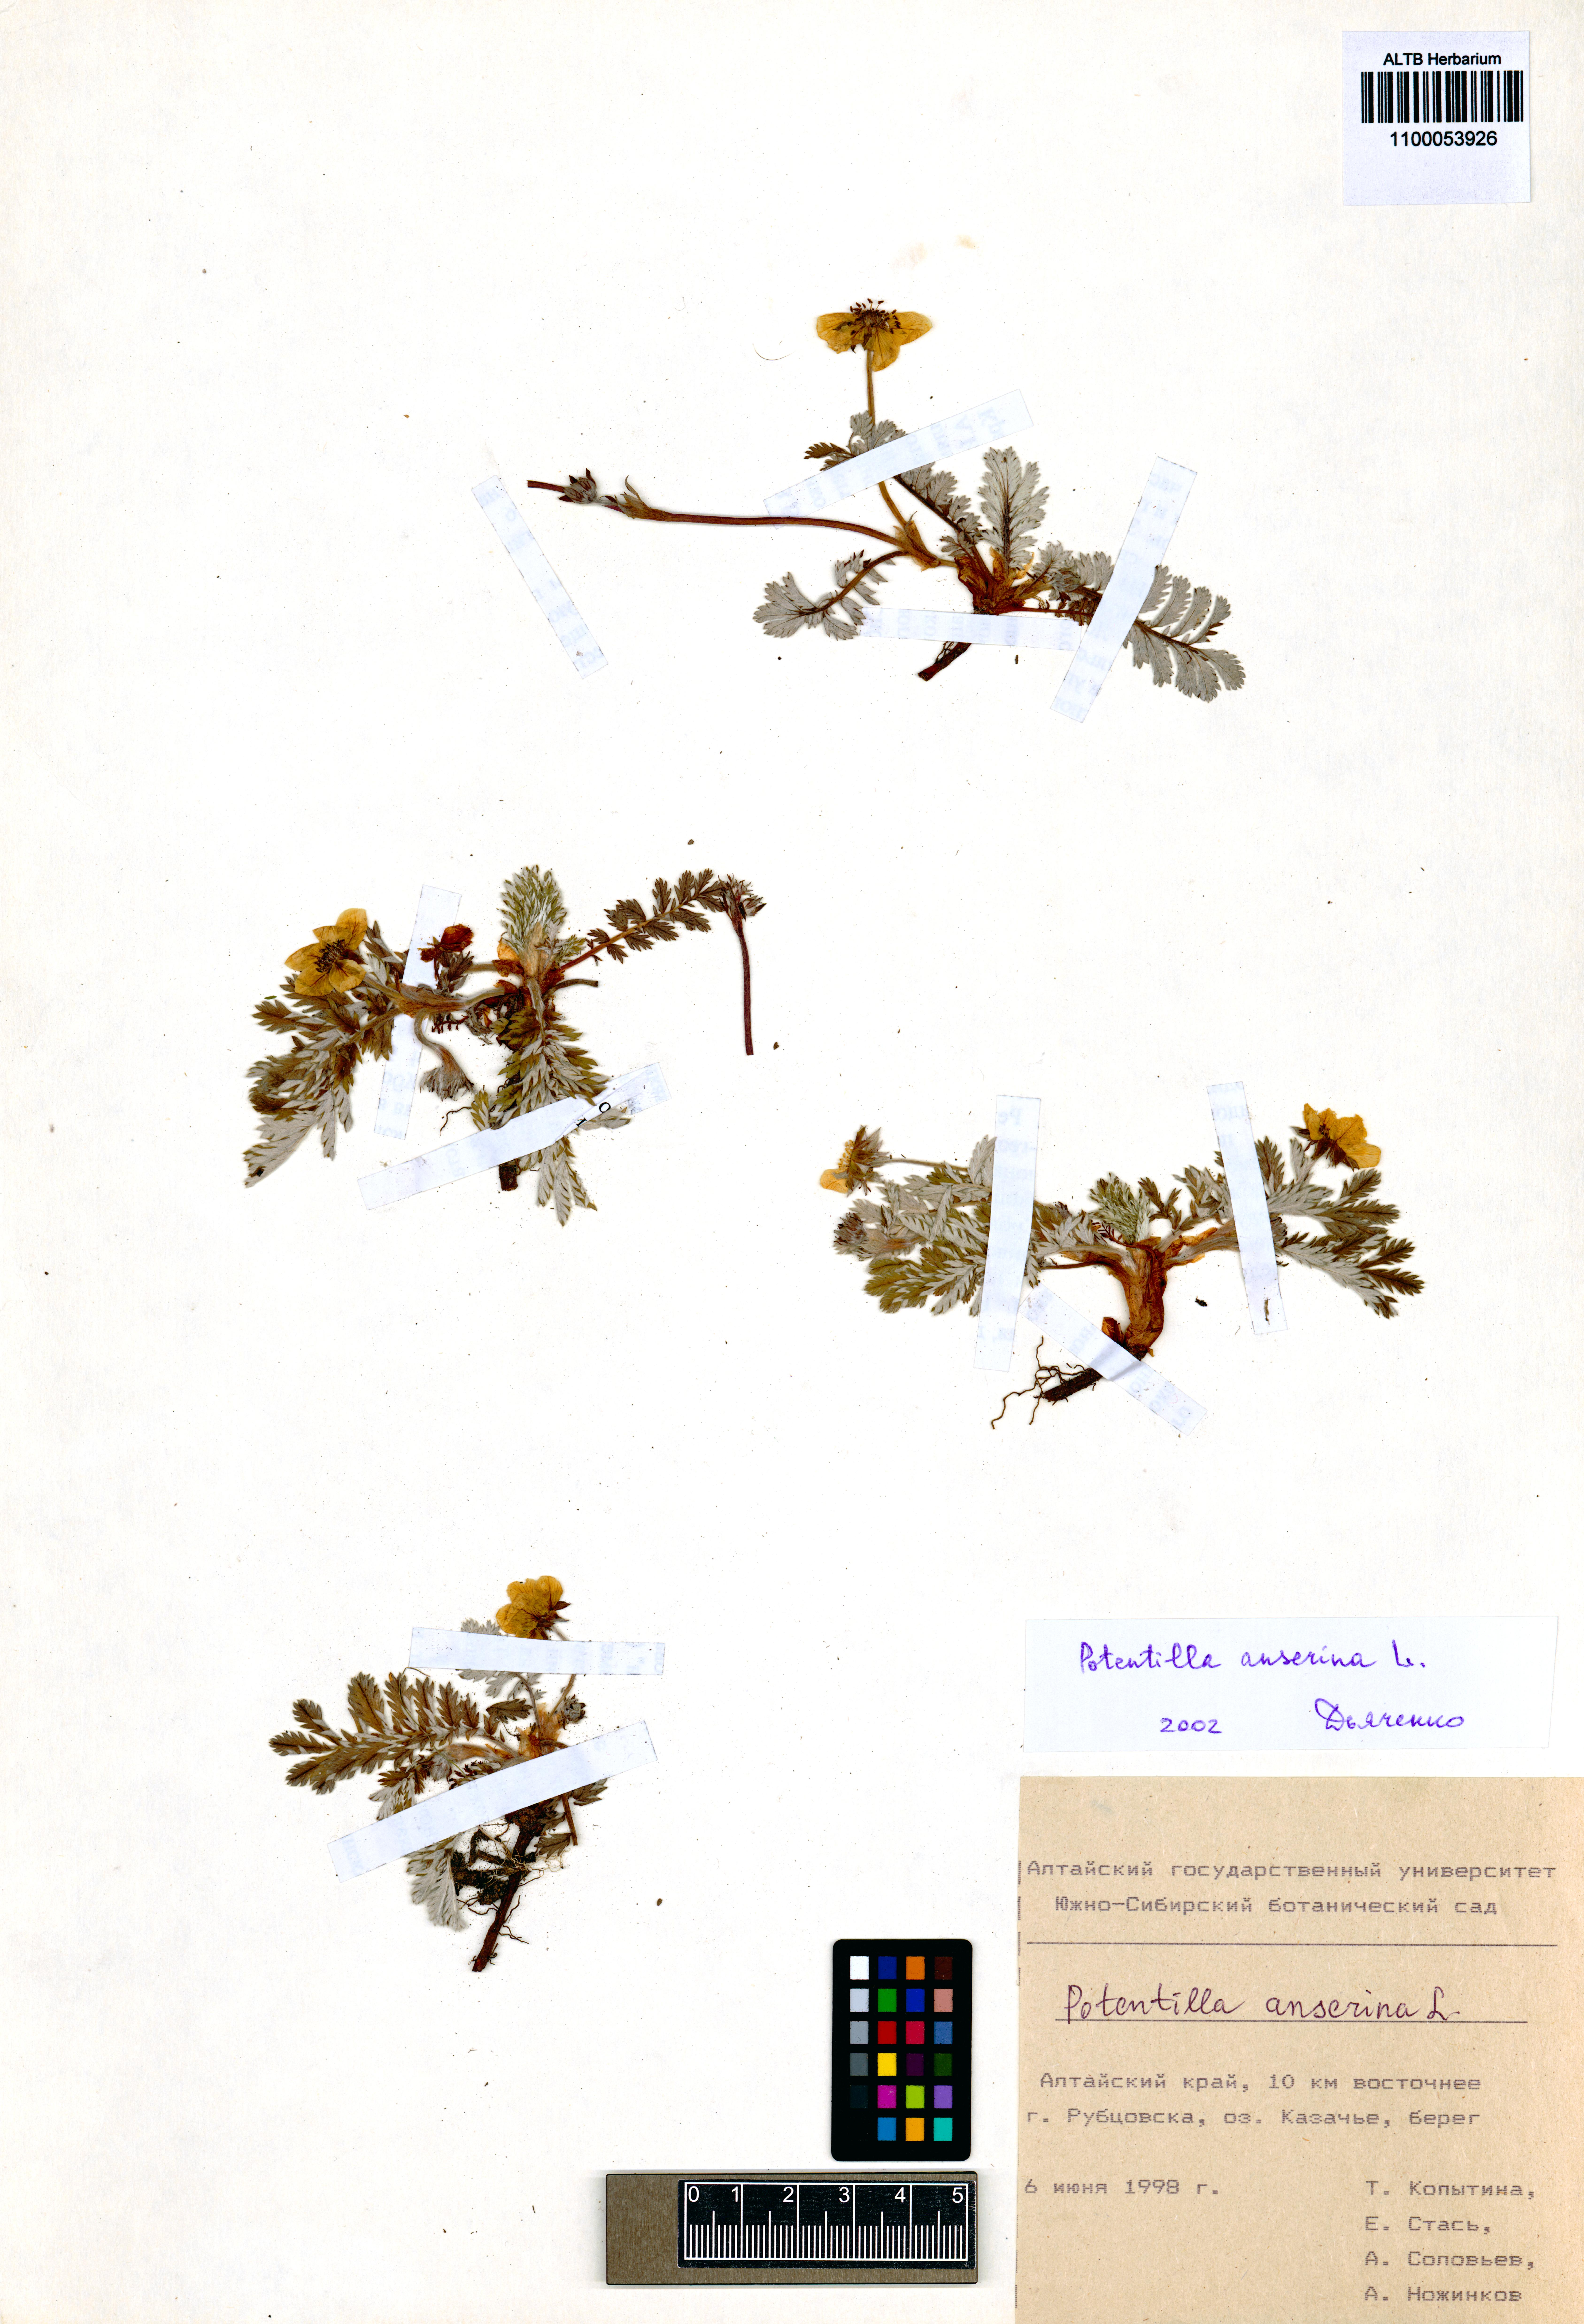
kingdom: Plantae
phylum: Tracheophyta
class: Magnoliopsida
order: Rosales
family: Rosaceae
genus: Argentina
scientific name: Argentina anserina
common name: Common silverweed
